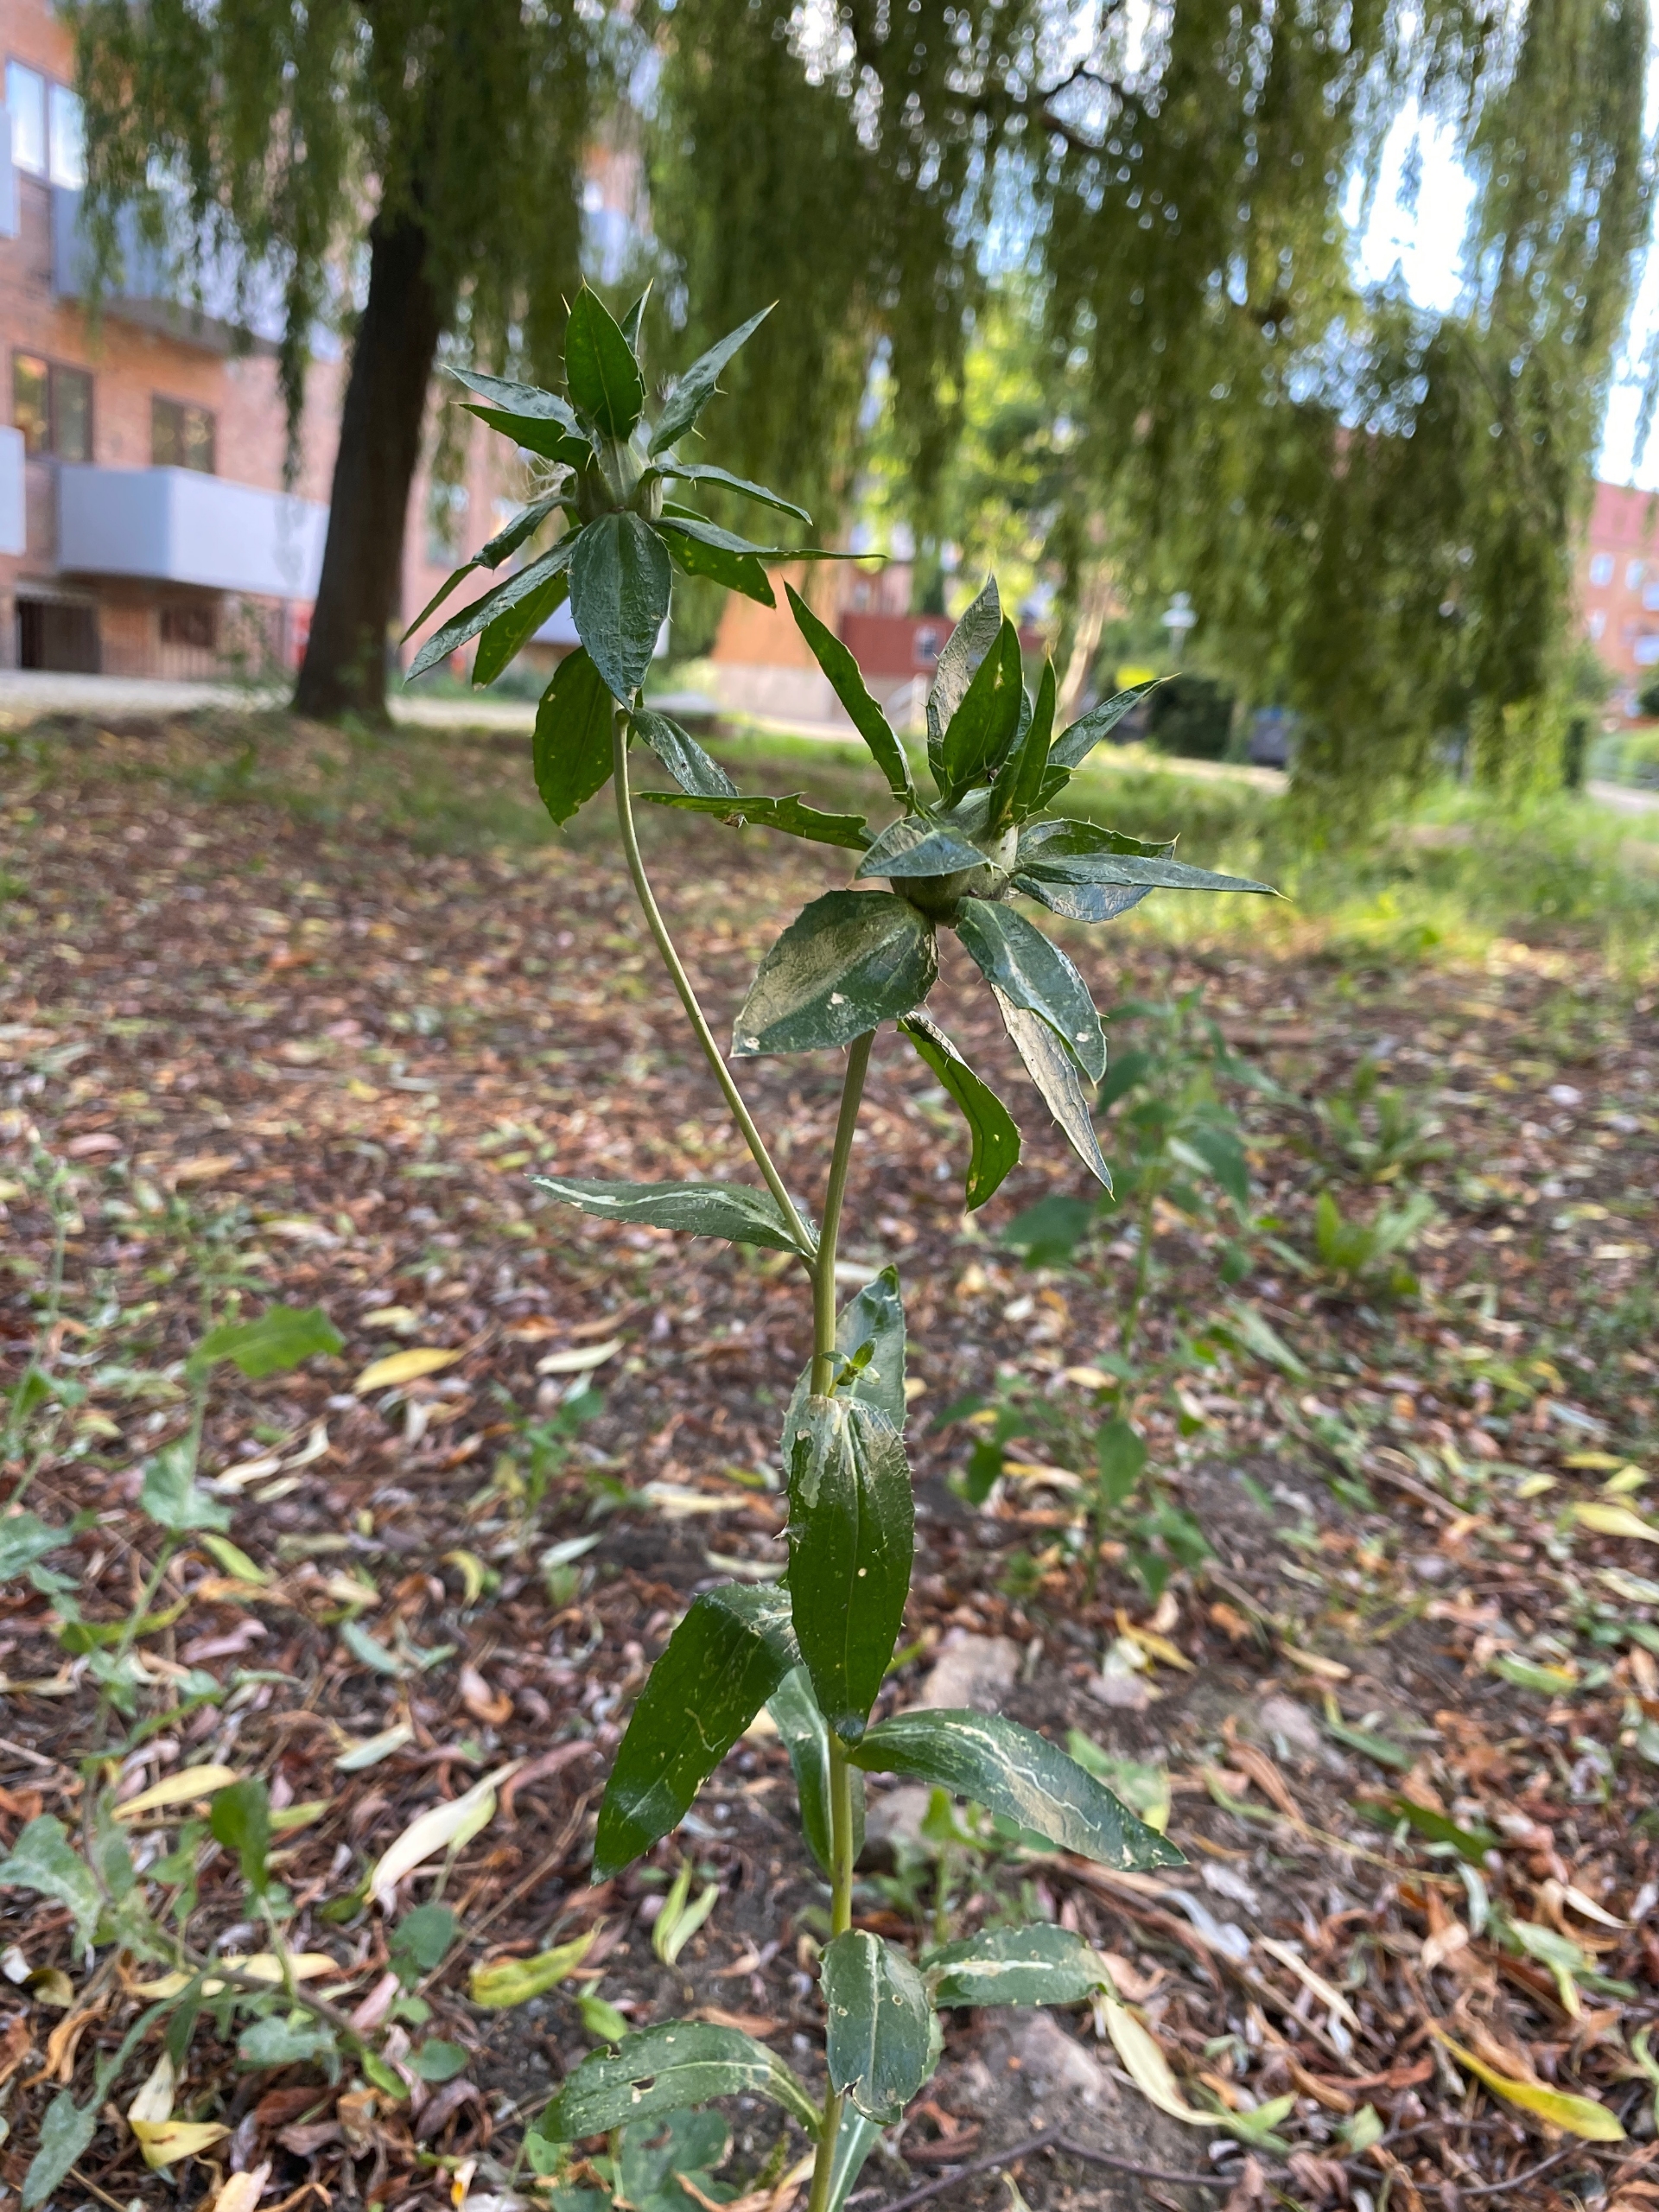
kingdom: Plantae
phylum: Tracheophyta
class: Magnoliopsida
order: Asterales
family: Asteraceae
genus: Carthamus
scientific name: Carthamus tinctorius
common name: Saflortidsel
